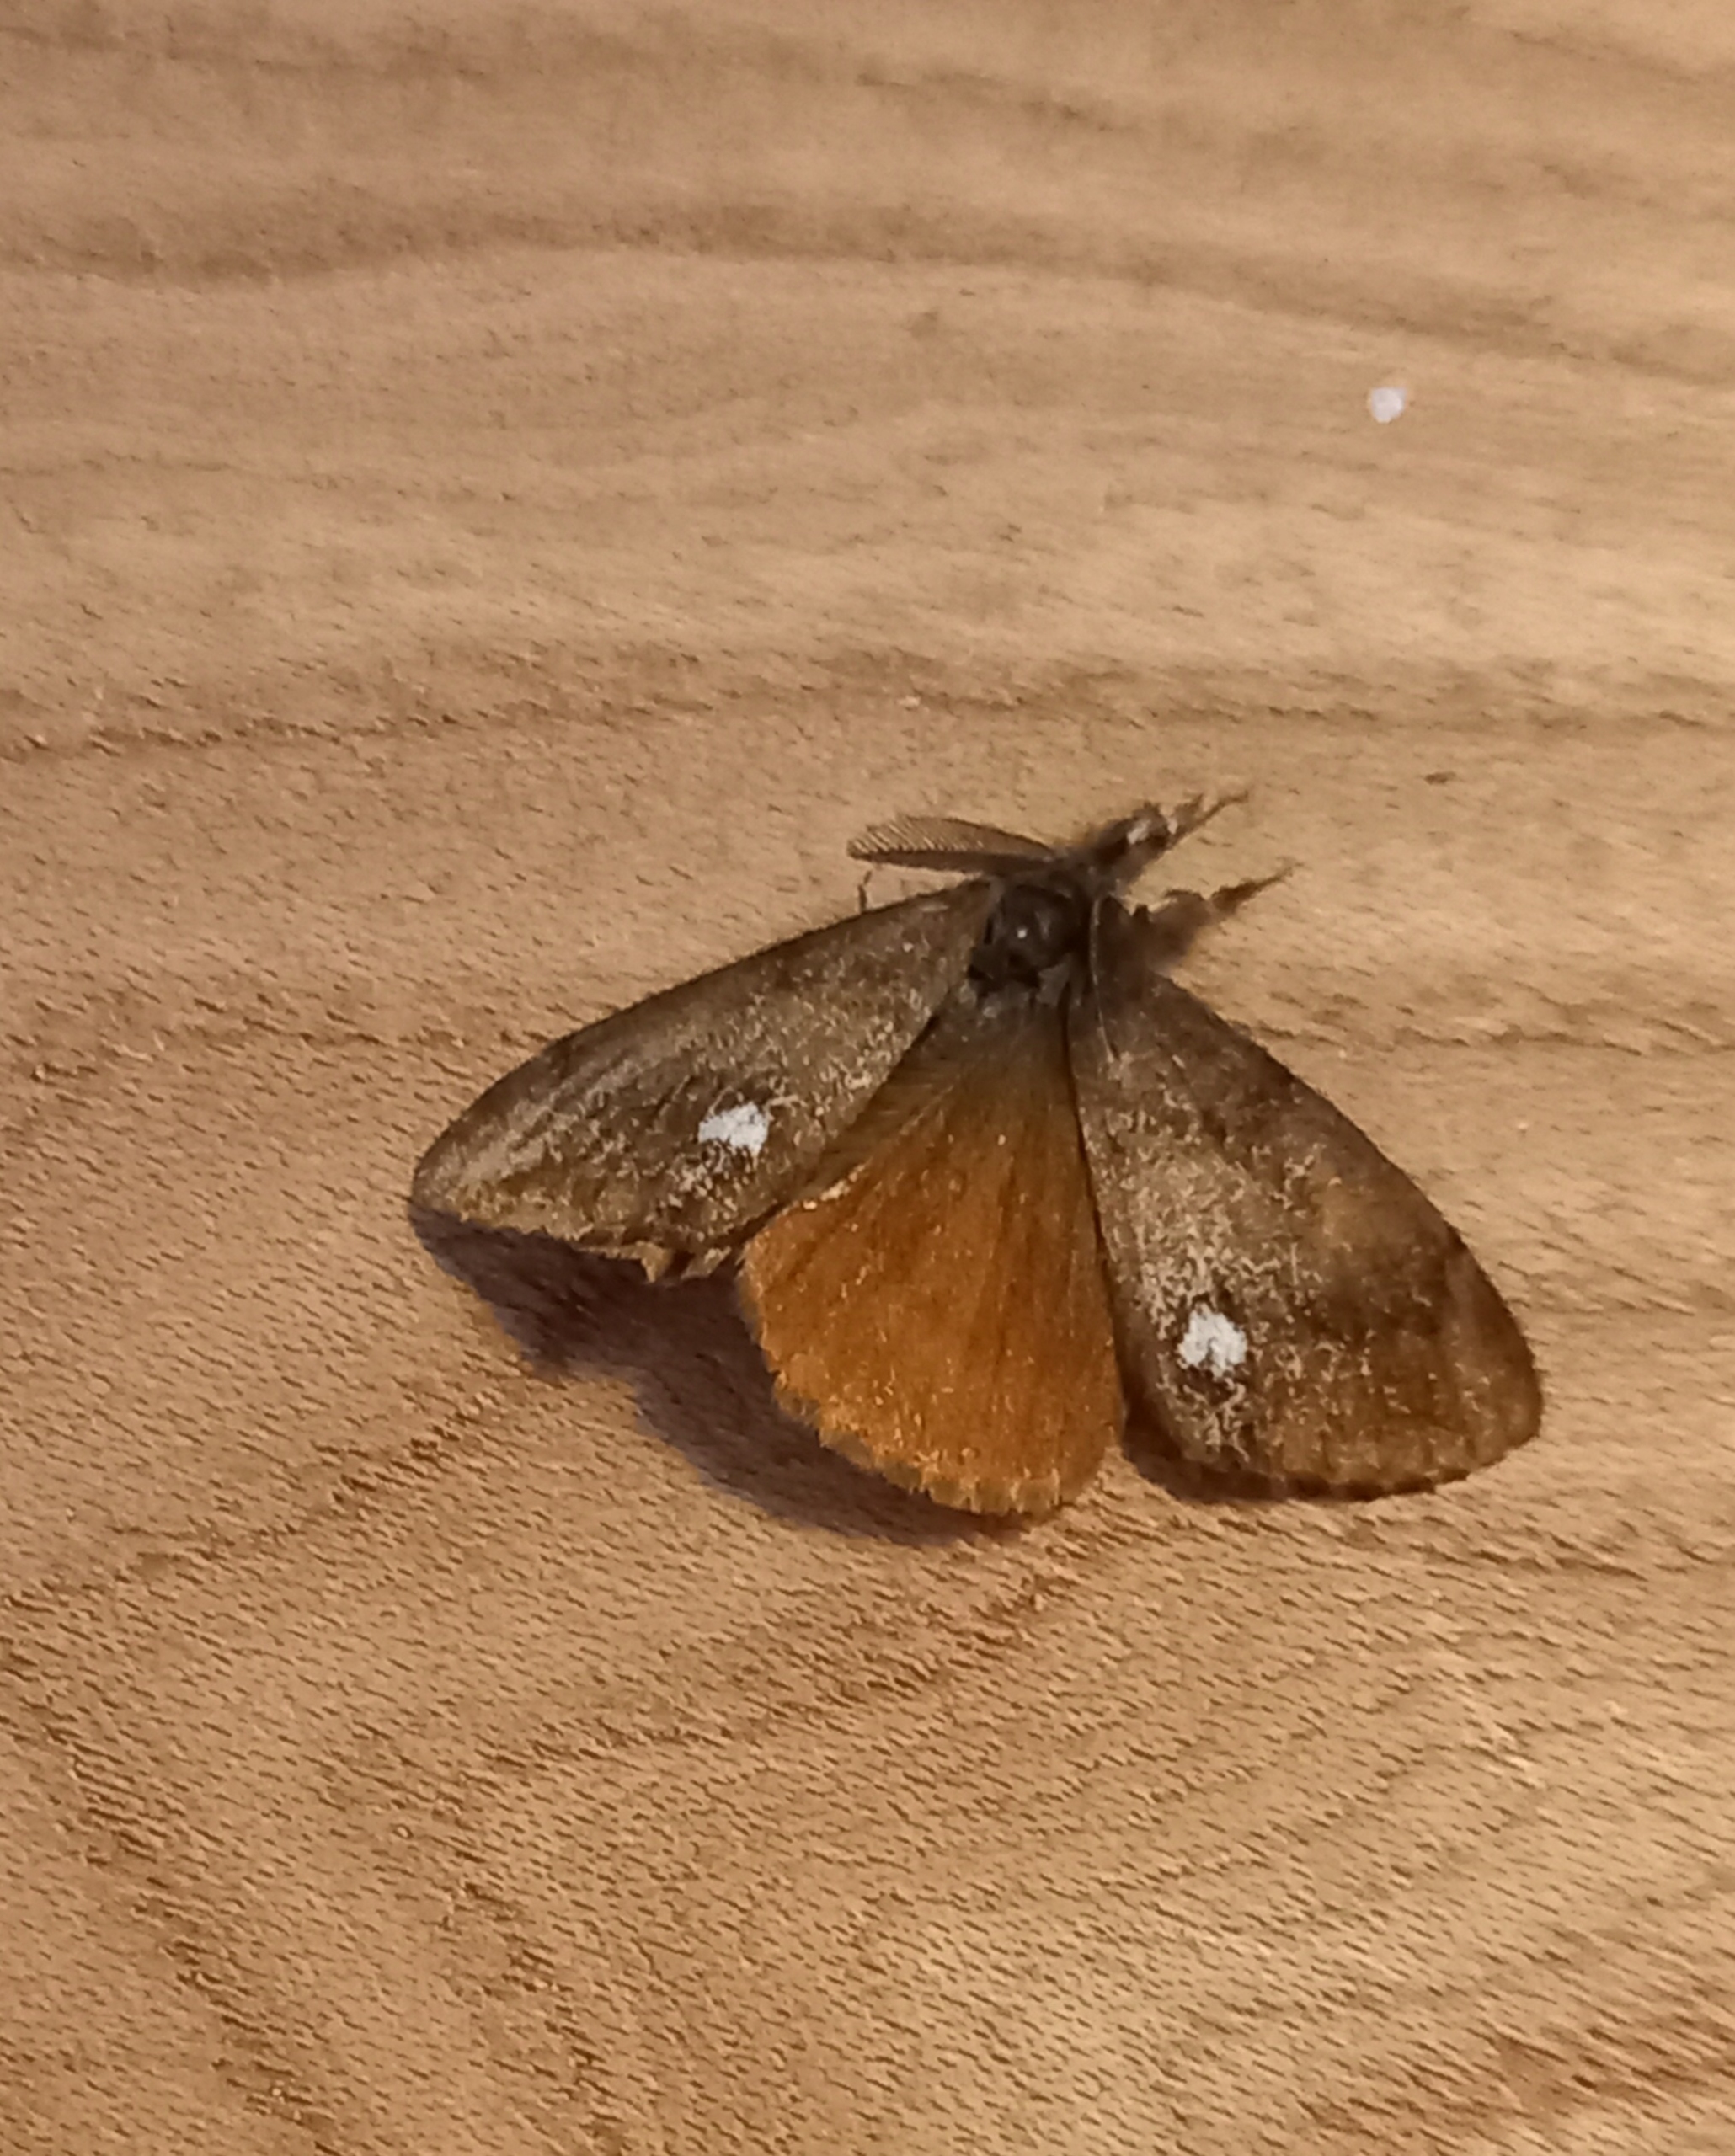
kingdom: Animalia
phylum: Arthropoda
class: Insecta
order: Lepidoptera
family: Erebidae
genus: Orgyia
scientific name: Orgyia antiqua
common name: Lille penselspinder
